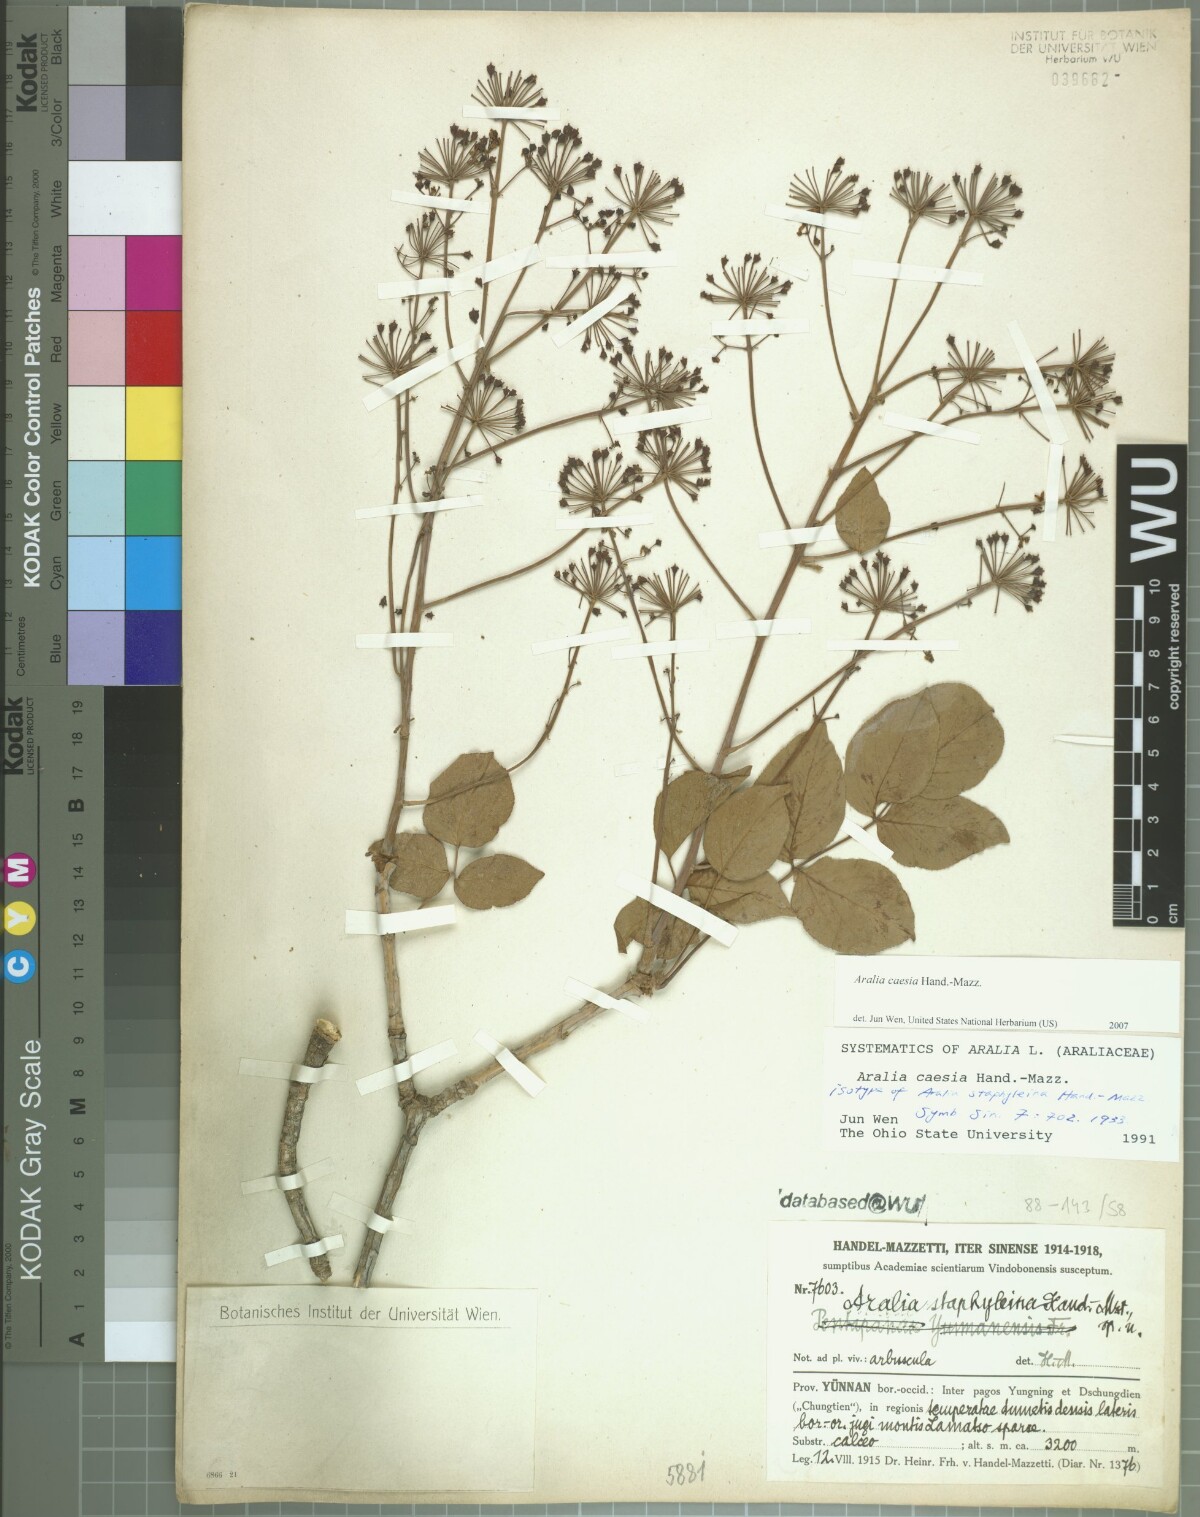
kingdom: Plantae
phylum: Tracheophyta
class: Magnoliopsida
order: Apiales
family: Araliaceae
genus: Aralia
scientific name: Aralia caesia
